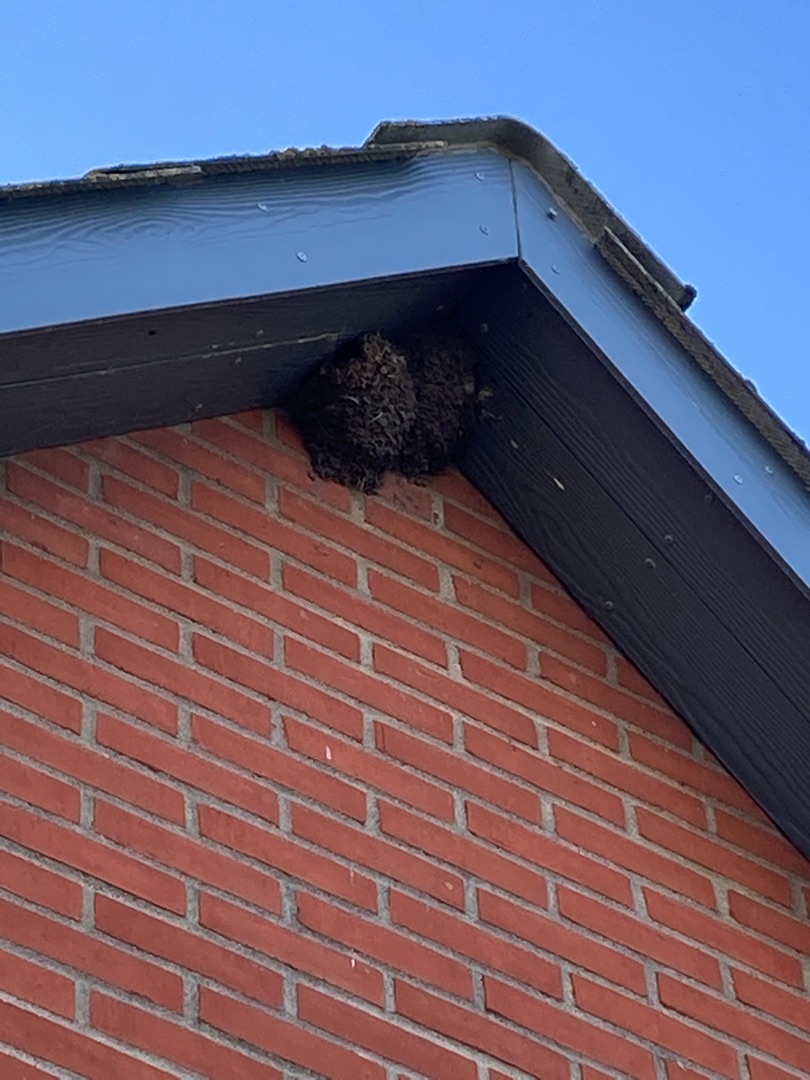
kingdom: Animalia
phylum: Chordata
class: Aves
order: Passeriformes
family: Hirundinidae
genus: Delichon
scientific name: Delichon urbicum
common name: Bysvale
